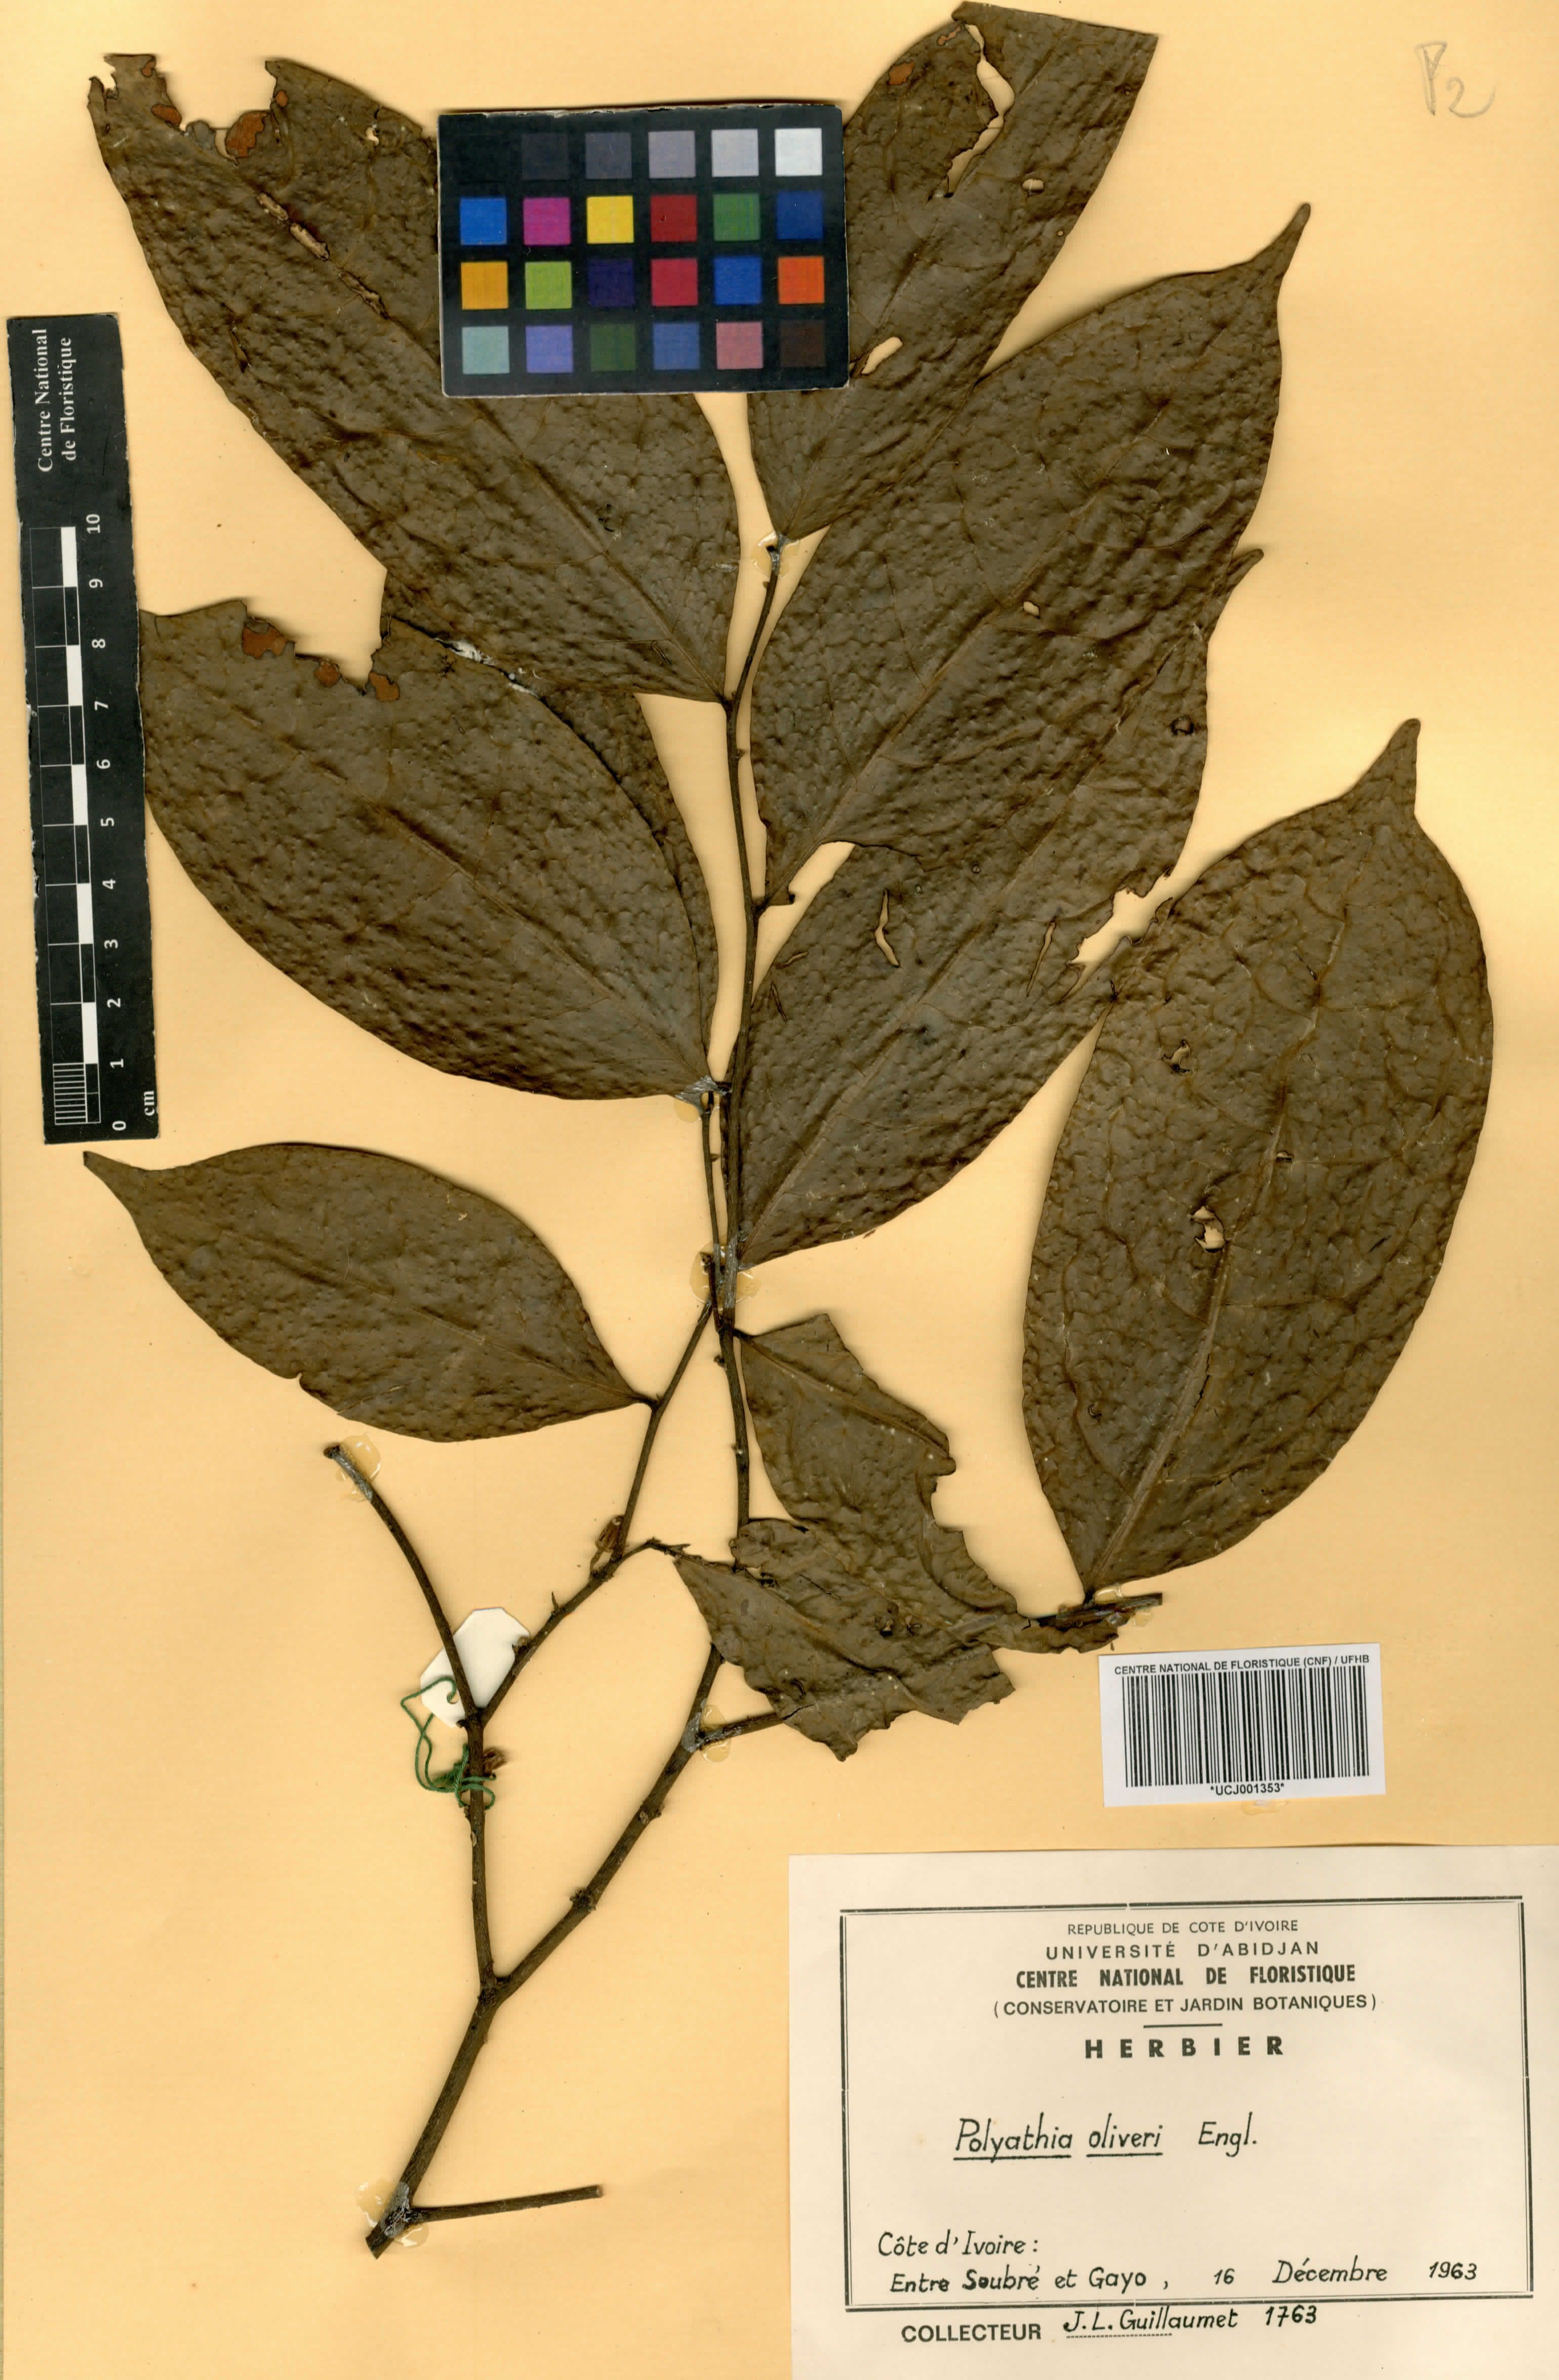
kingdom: Plantae
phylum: Tracheophyta
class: Magnoliopsida
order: Magnoliales
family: Annonaceae
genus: Greenwayodendron
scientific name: Greenwayodendron oliveri
